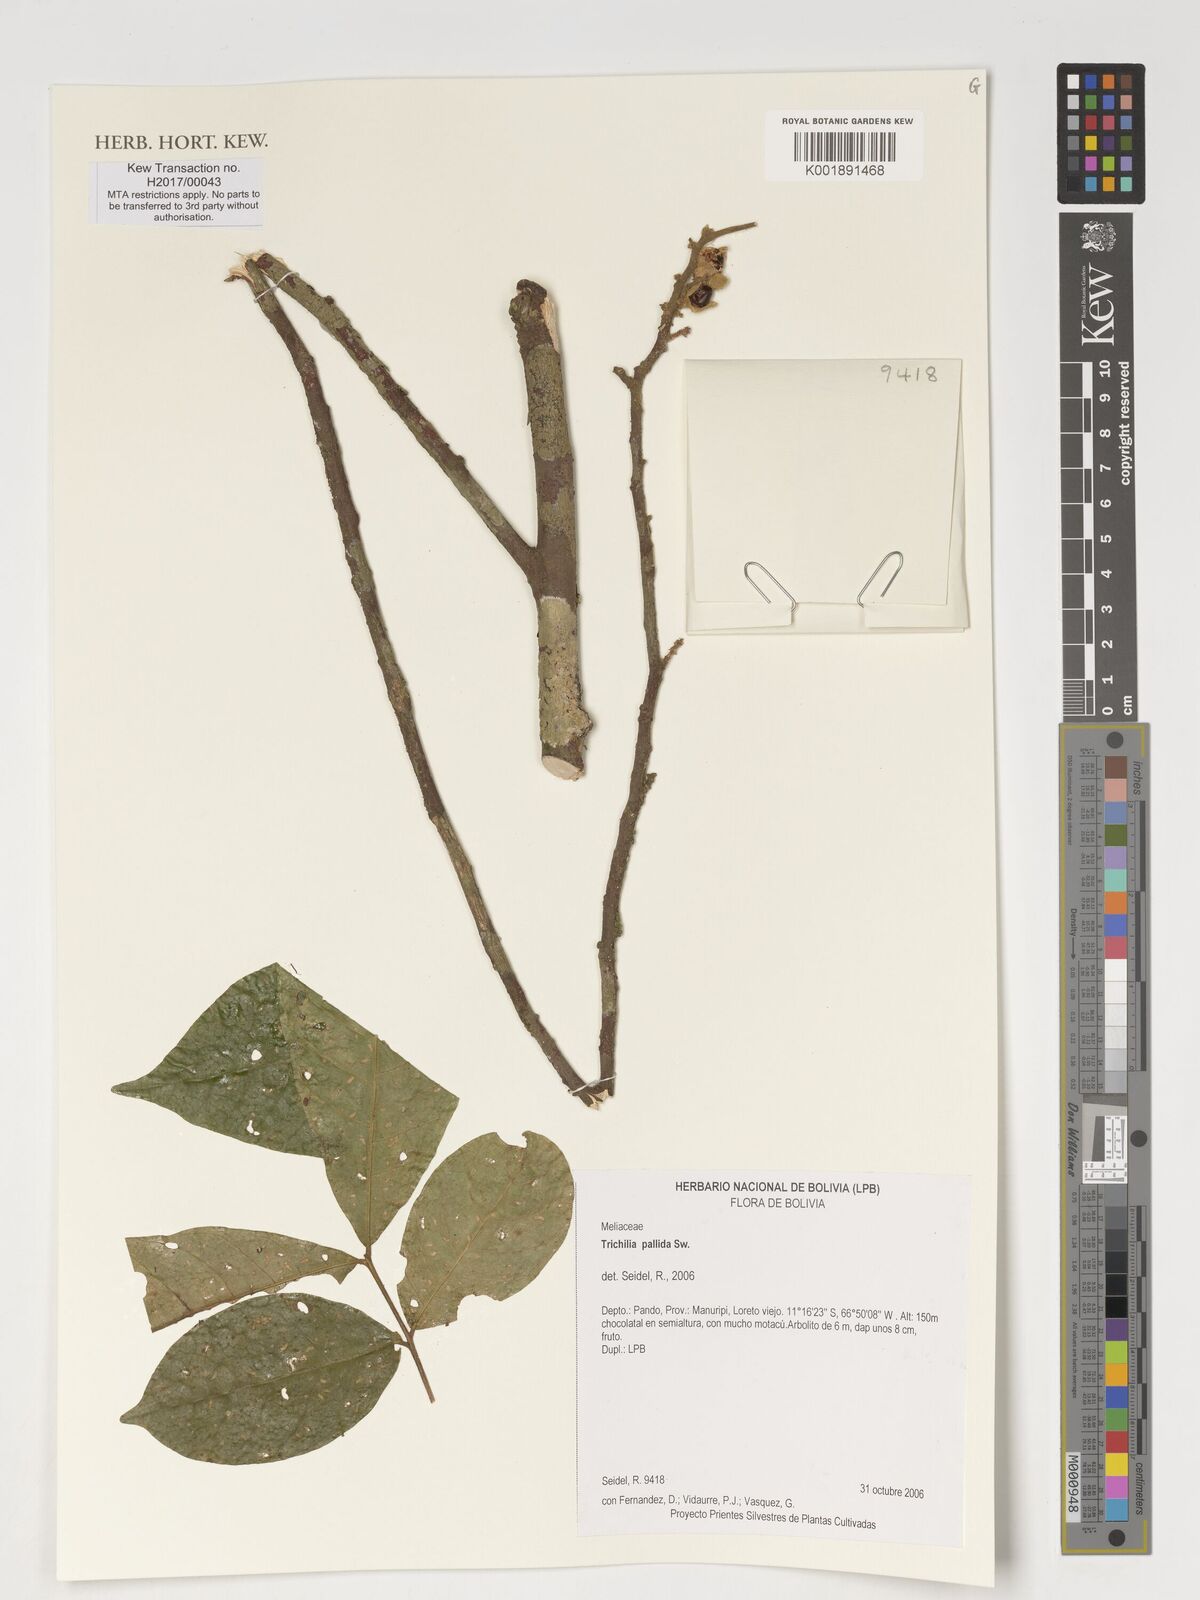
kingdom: Plantae
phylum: Tracheophyta
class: Magnoliopsida
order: Sapindales
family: Meliaceae
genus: Trichilia
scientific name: Trichilia pallida
